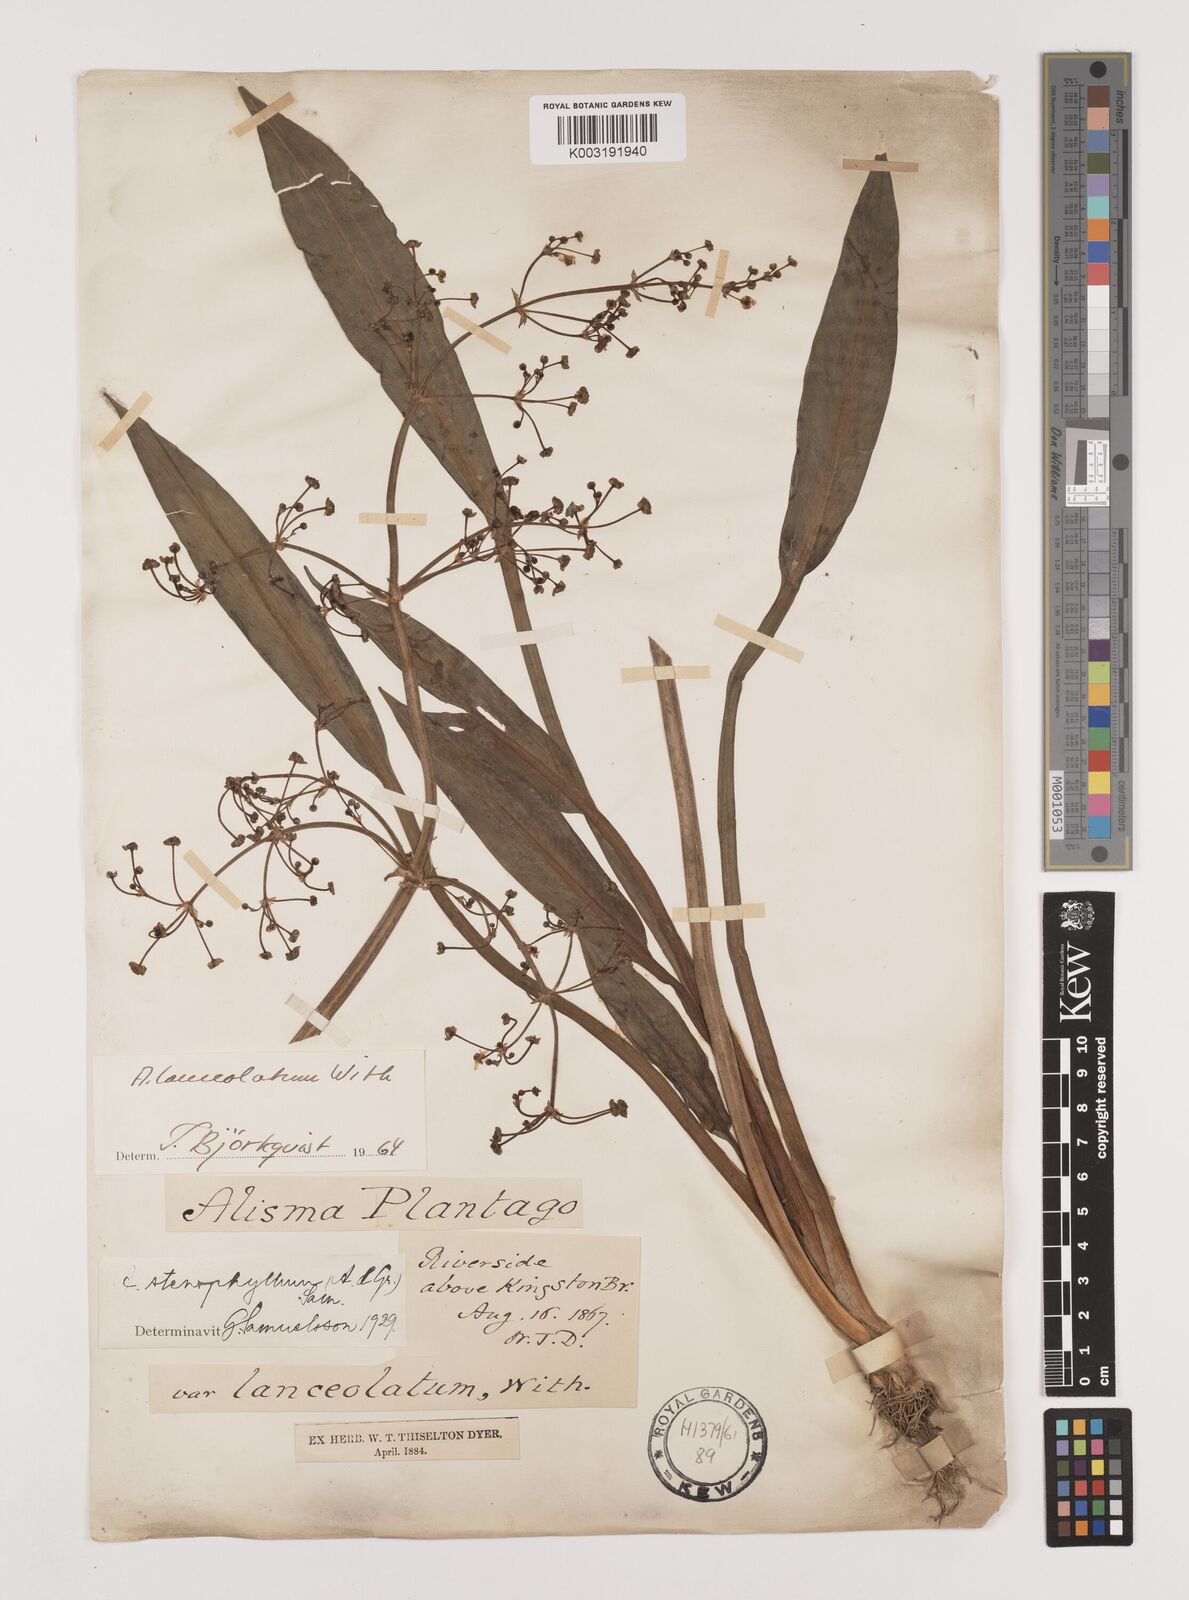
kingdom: Plantae
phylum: Tracheophyta
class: Liliopsida
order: Alismatales
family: Alismataceae
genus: Alisma
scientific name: Alisma lanceolatum
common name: Narrow-leaved water-plantain
